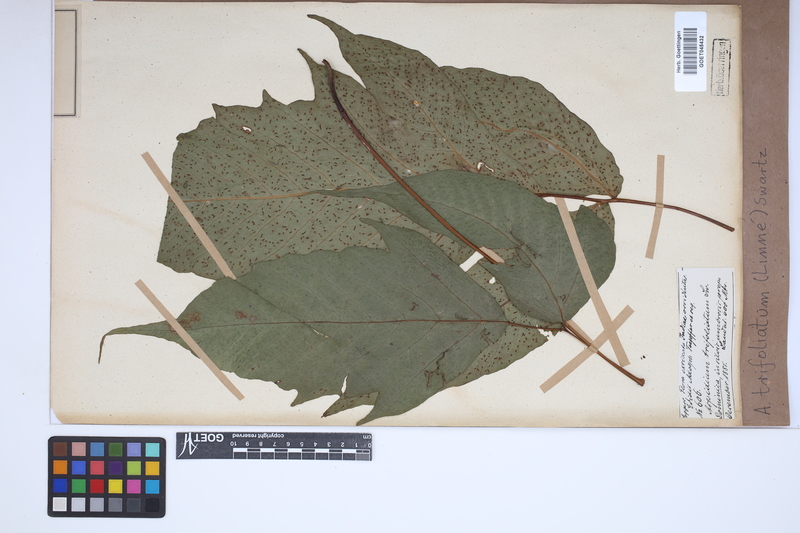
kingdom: Plantae
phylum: Tracheophyta
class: Polypodiopsida
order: Polypodiales
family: Tectariaceae
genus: Tectaria
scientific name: Tectaria trifoliata
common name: Threeleaf halberd fern
